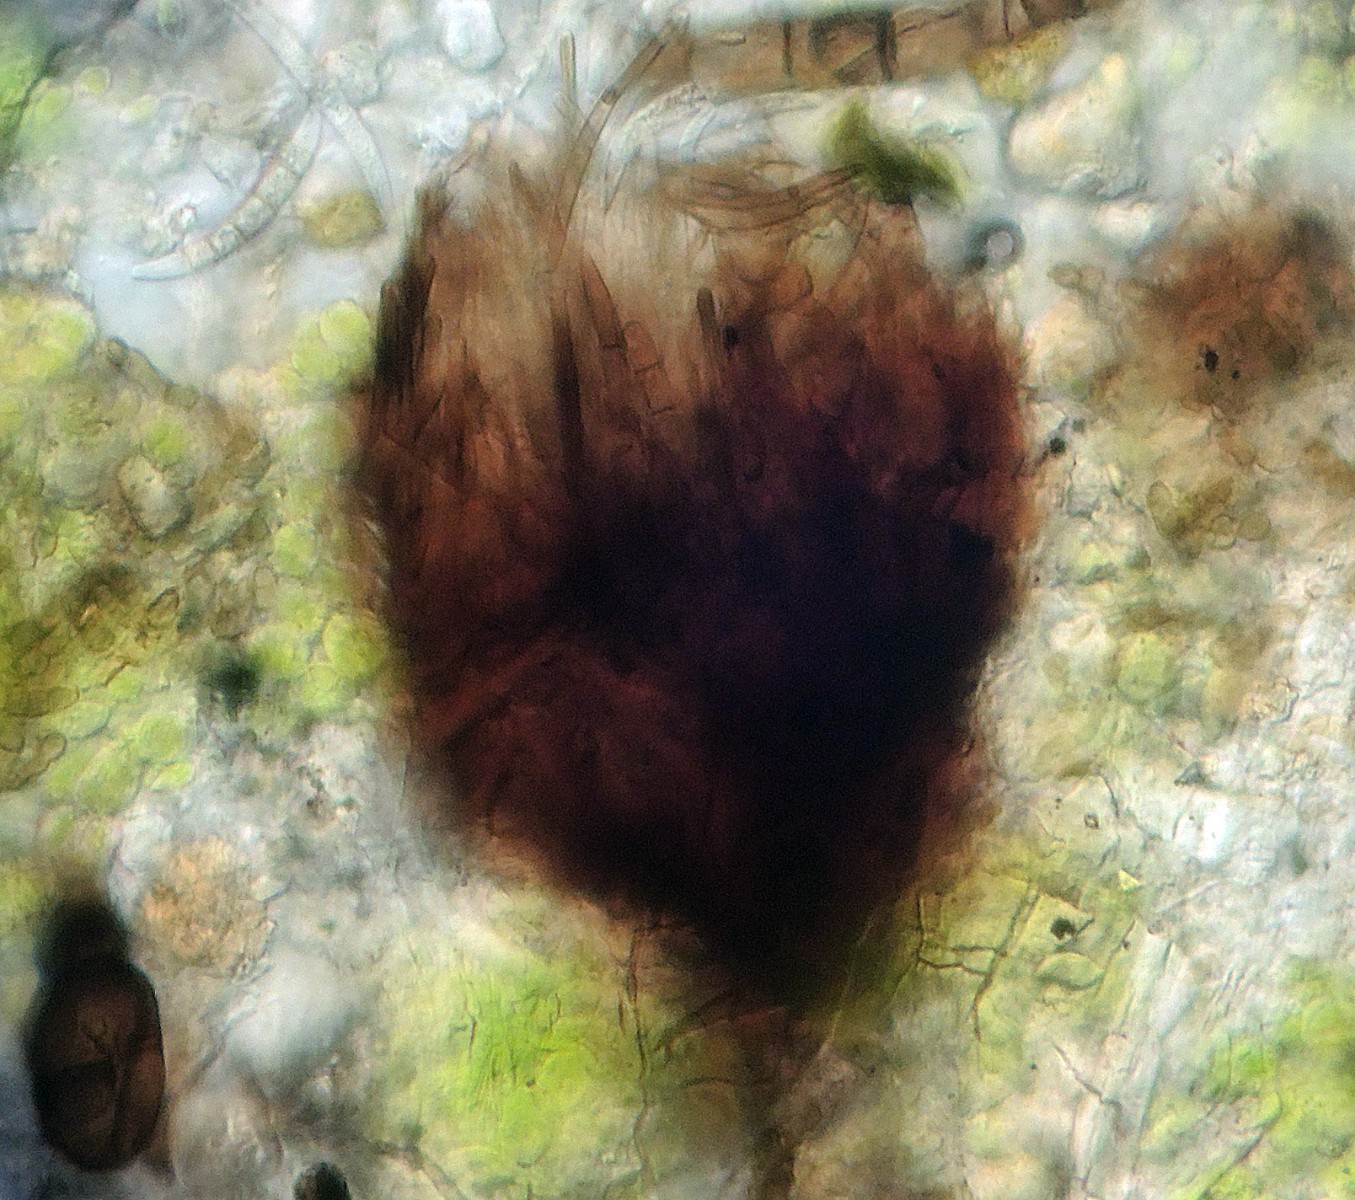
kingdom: Fungi
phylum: Ascomycota
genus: Excipularia
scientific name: Excipularia fusispora
